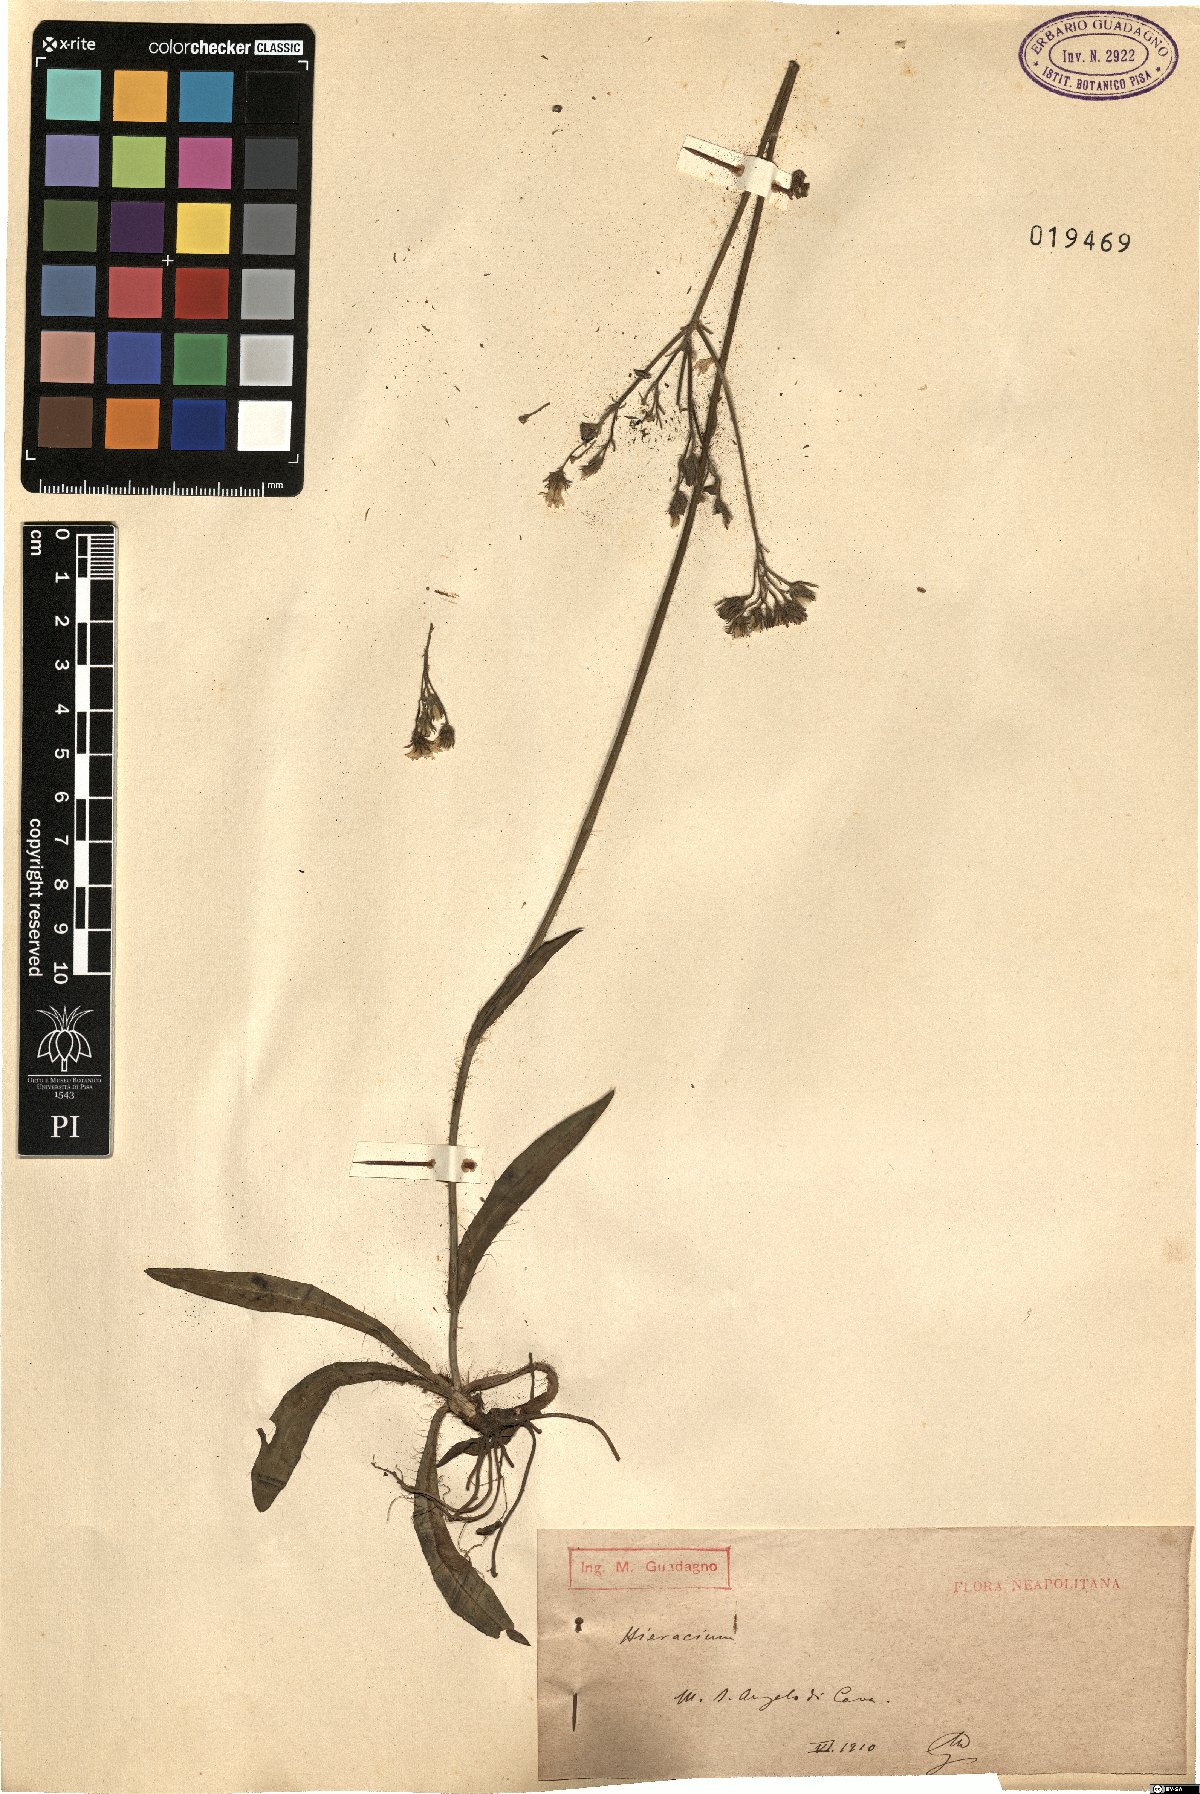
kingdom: Plantae
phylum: Tracheophyta
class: Magnoliopsida
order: Asterales
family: Asteraceae
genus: Hieracium
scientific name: Hieracium
